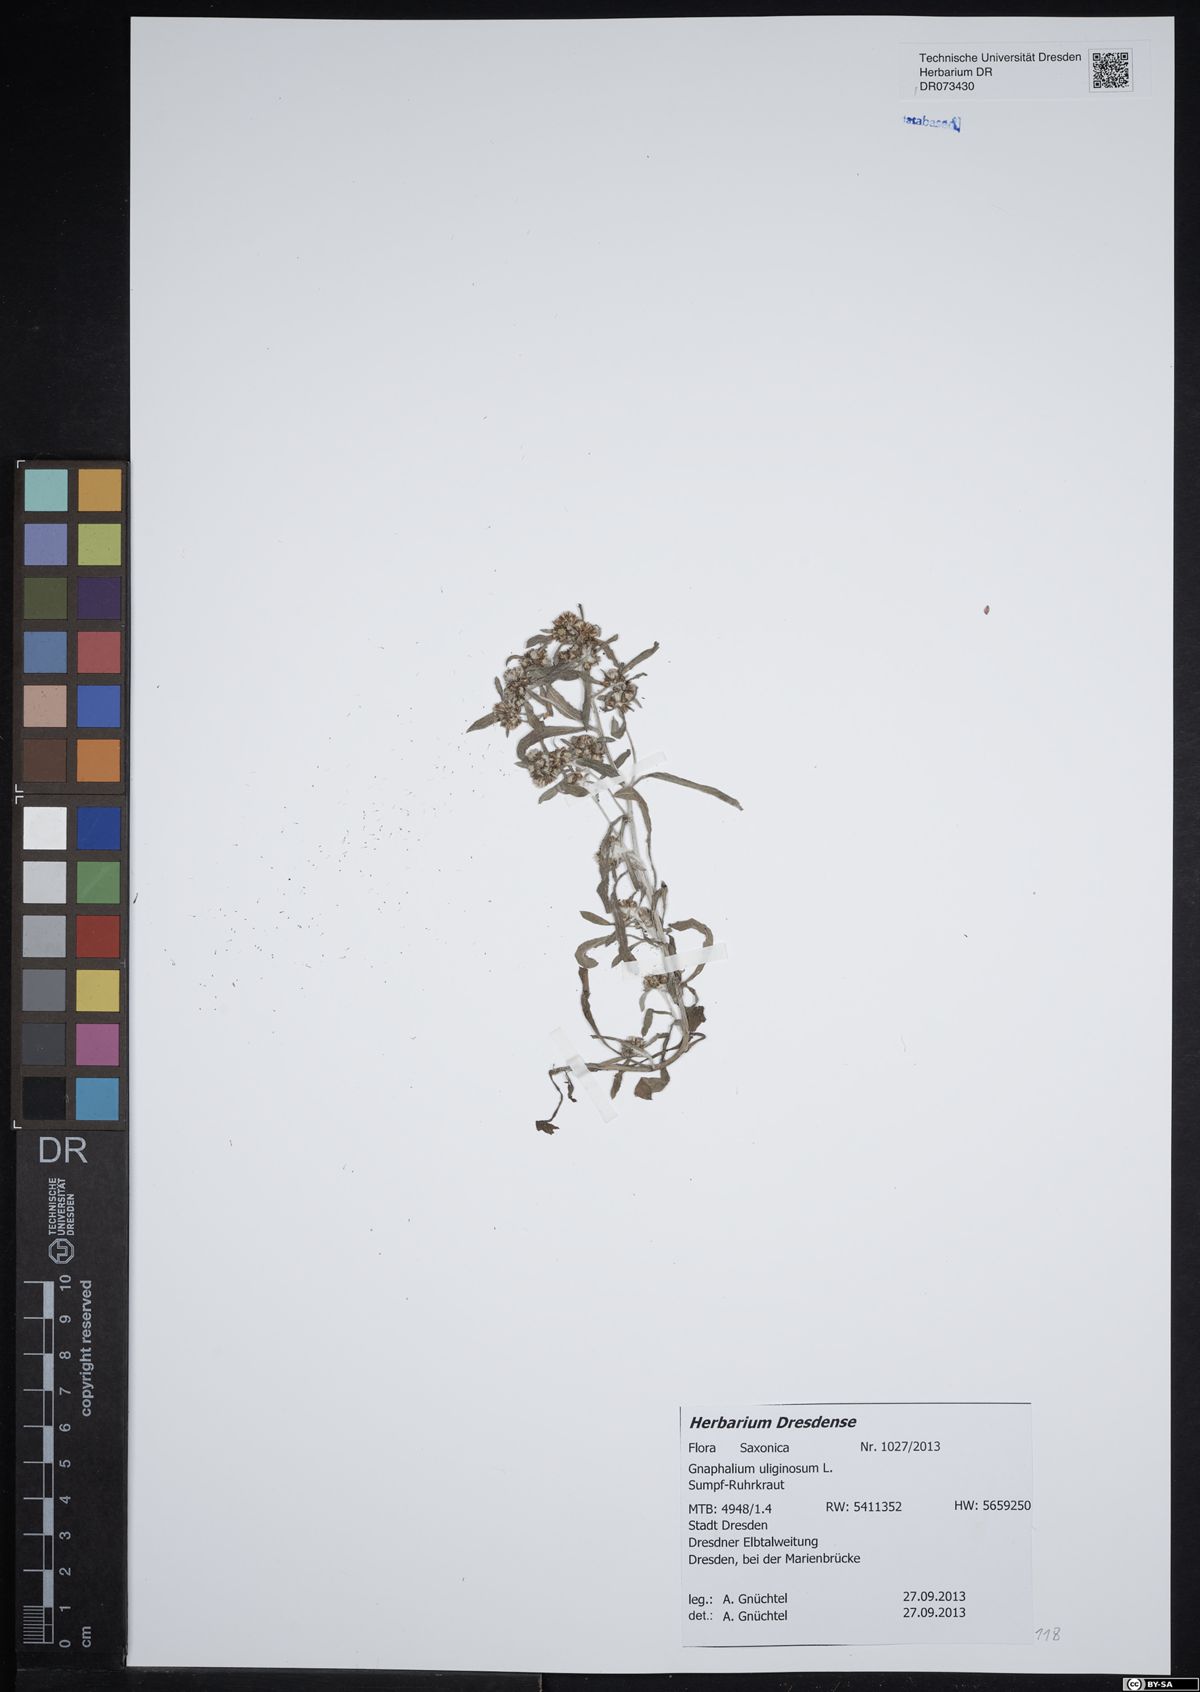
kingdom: Plantae
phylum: Tracheophyta
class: Magnoliopsida
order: Asterales
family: Asteraceae
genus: Gnaphalium
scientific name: Gnaphalium uliginosum
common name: Marsh cudweed
